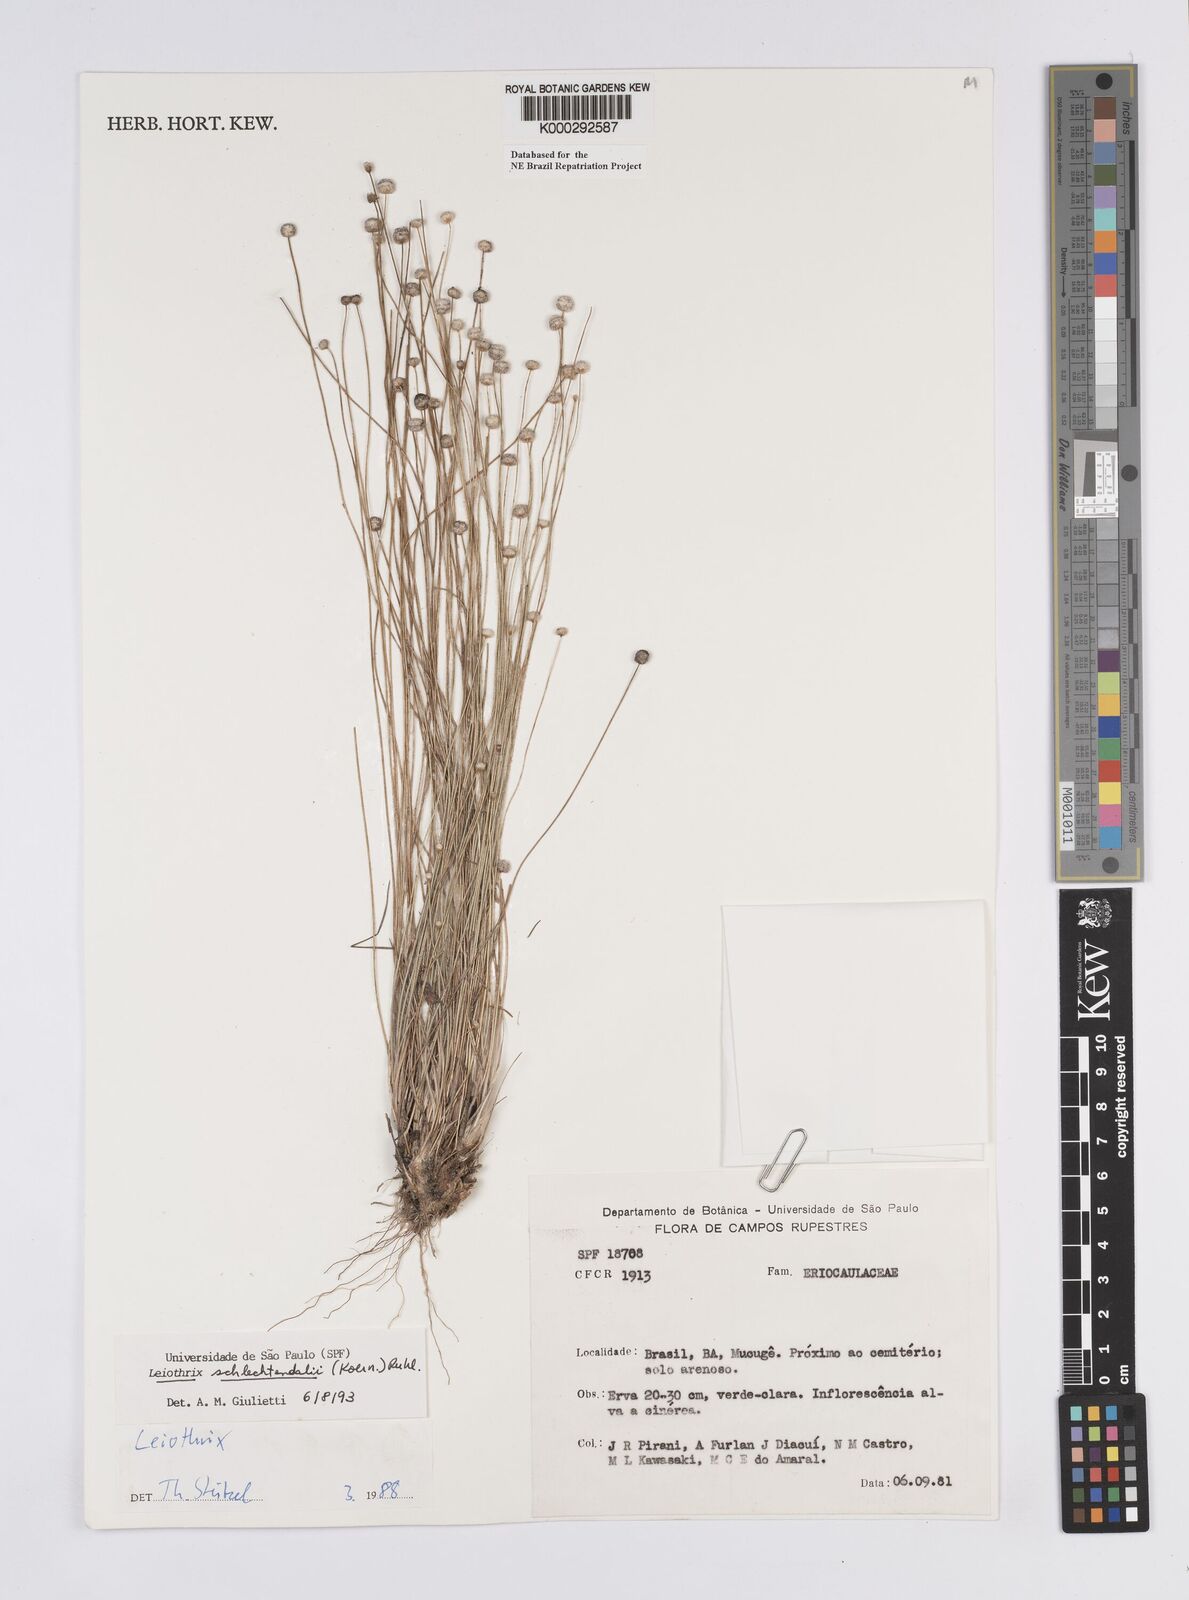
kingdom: Plantae
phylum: Tracheophyta
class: Liliopsida
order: Poales
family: Eriocaulaceae
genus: Leiothrix
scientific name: Leiothrix schlechtendalii
